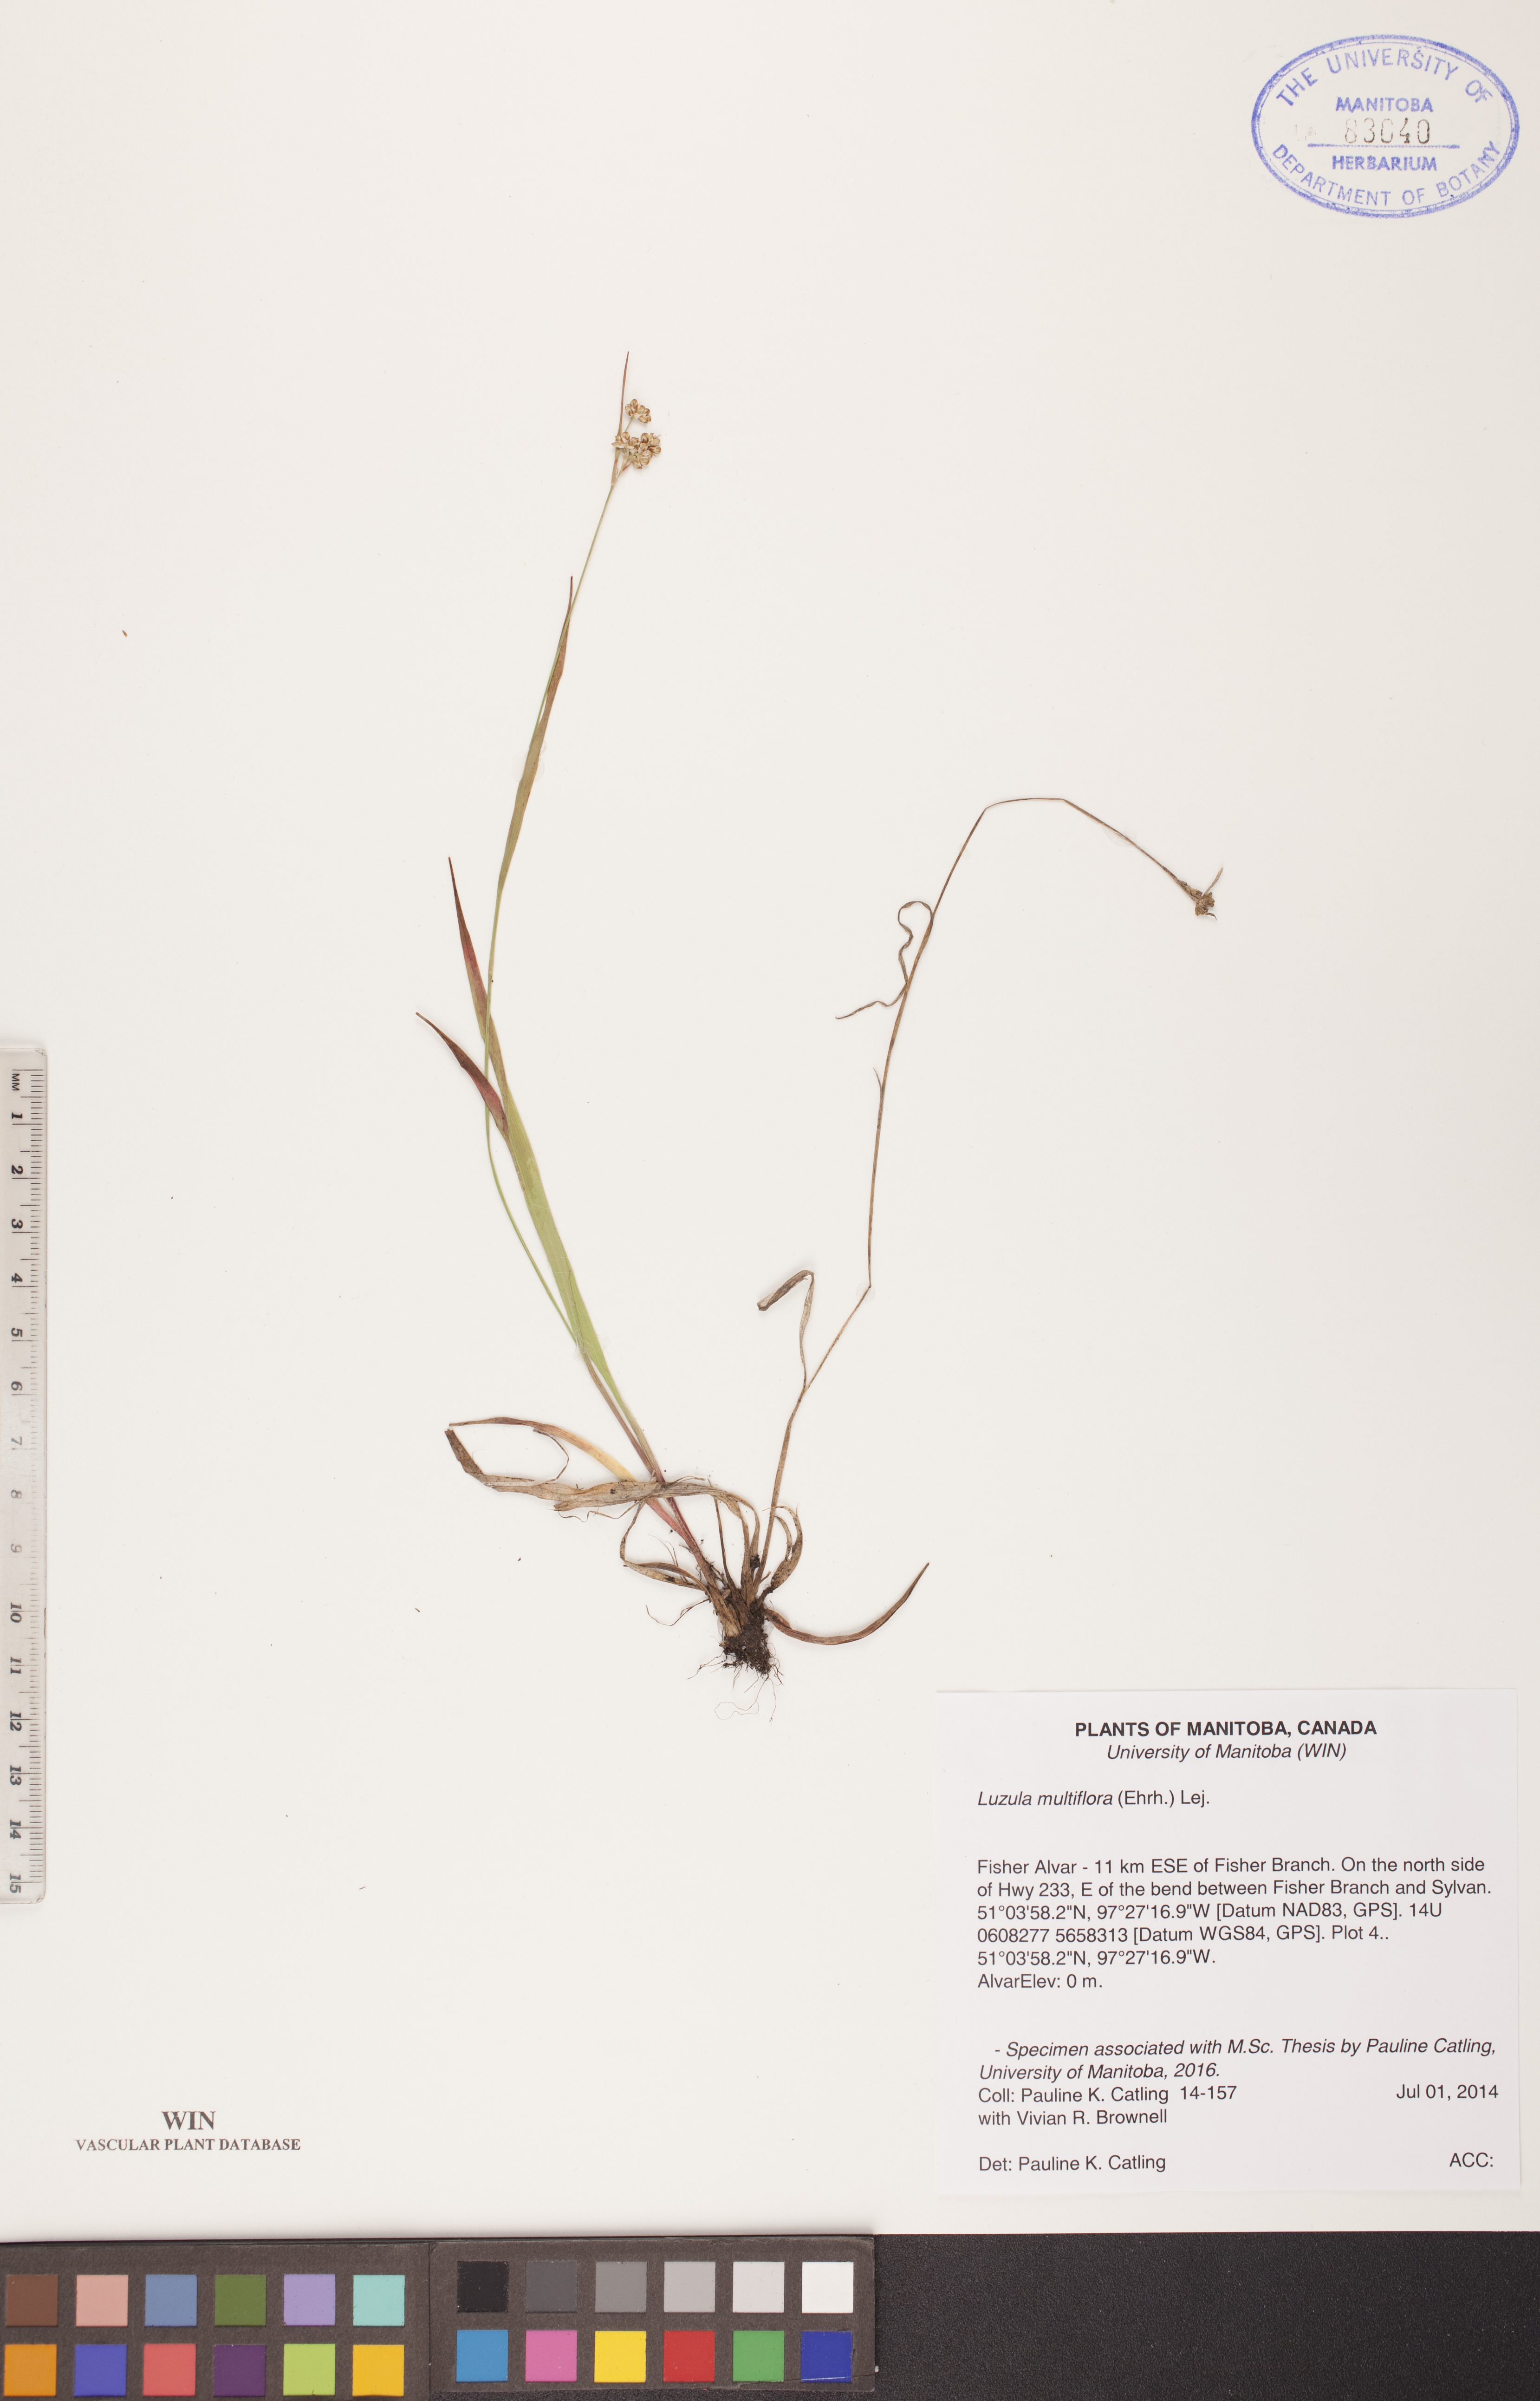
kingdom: Plantae
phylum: Tracheophyta
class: Liliopsida
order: Poales
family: Juncaceae
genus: Luzula
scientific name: Luzula multiflora
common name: Heath wood-rush
